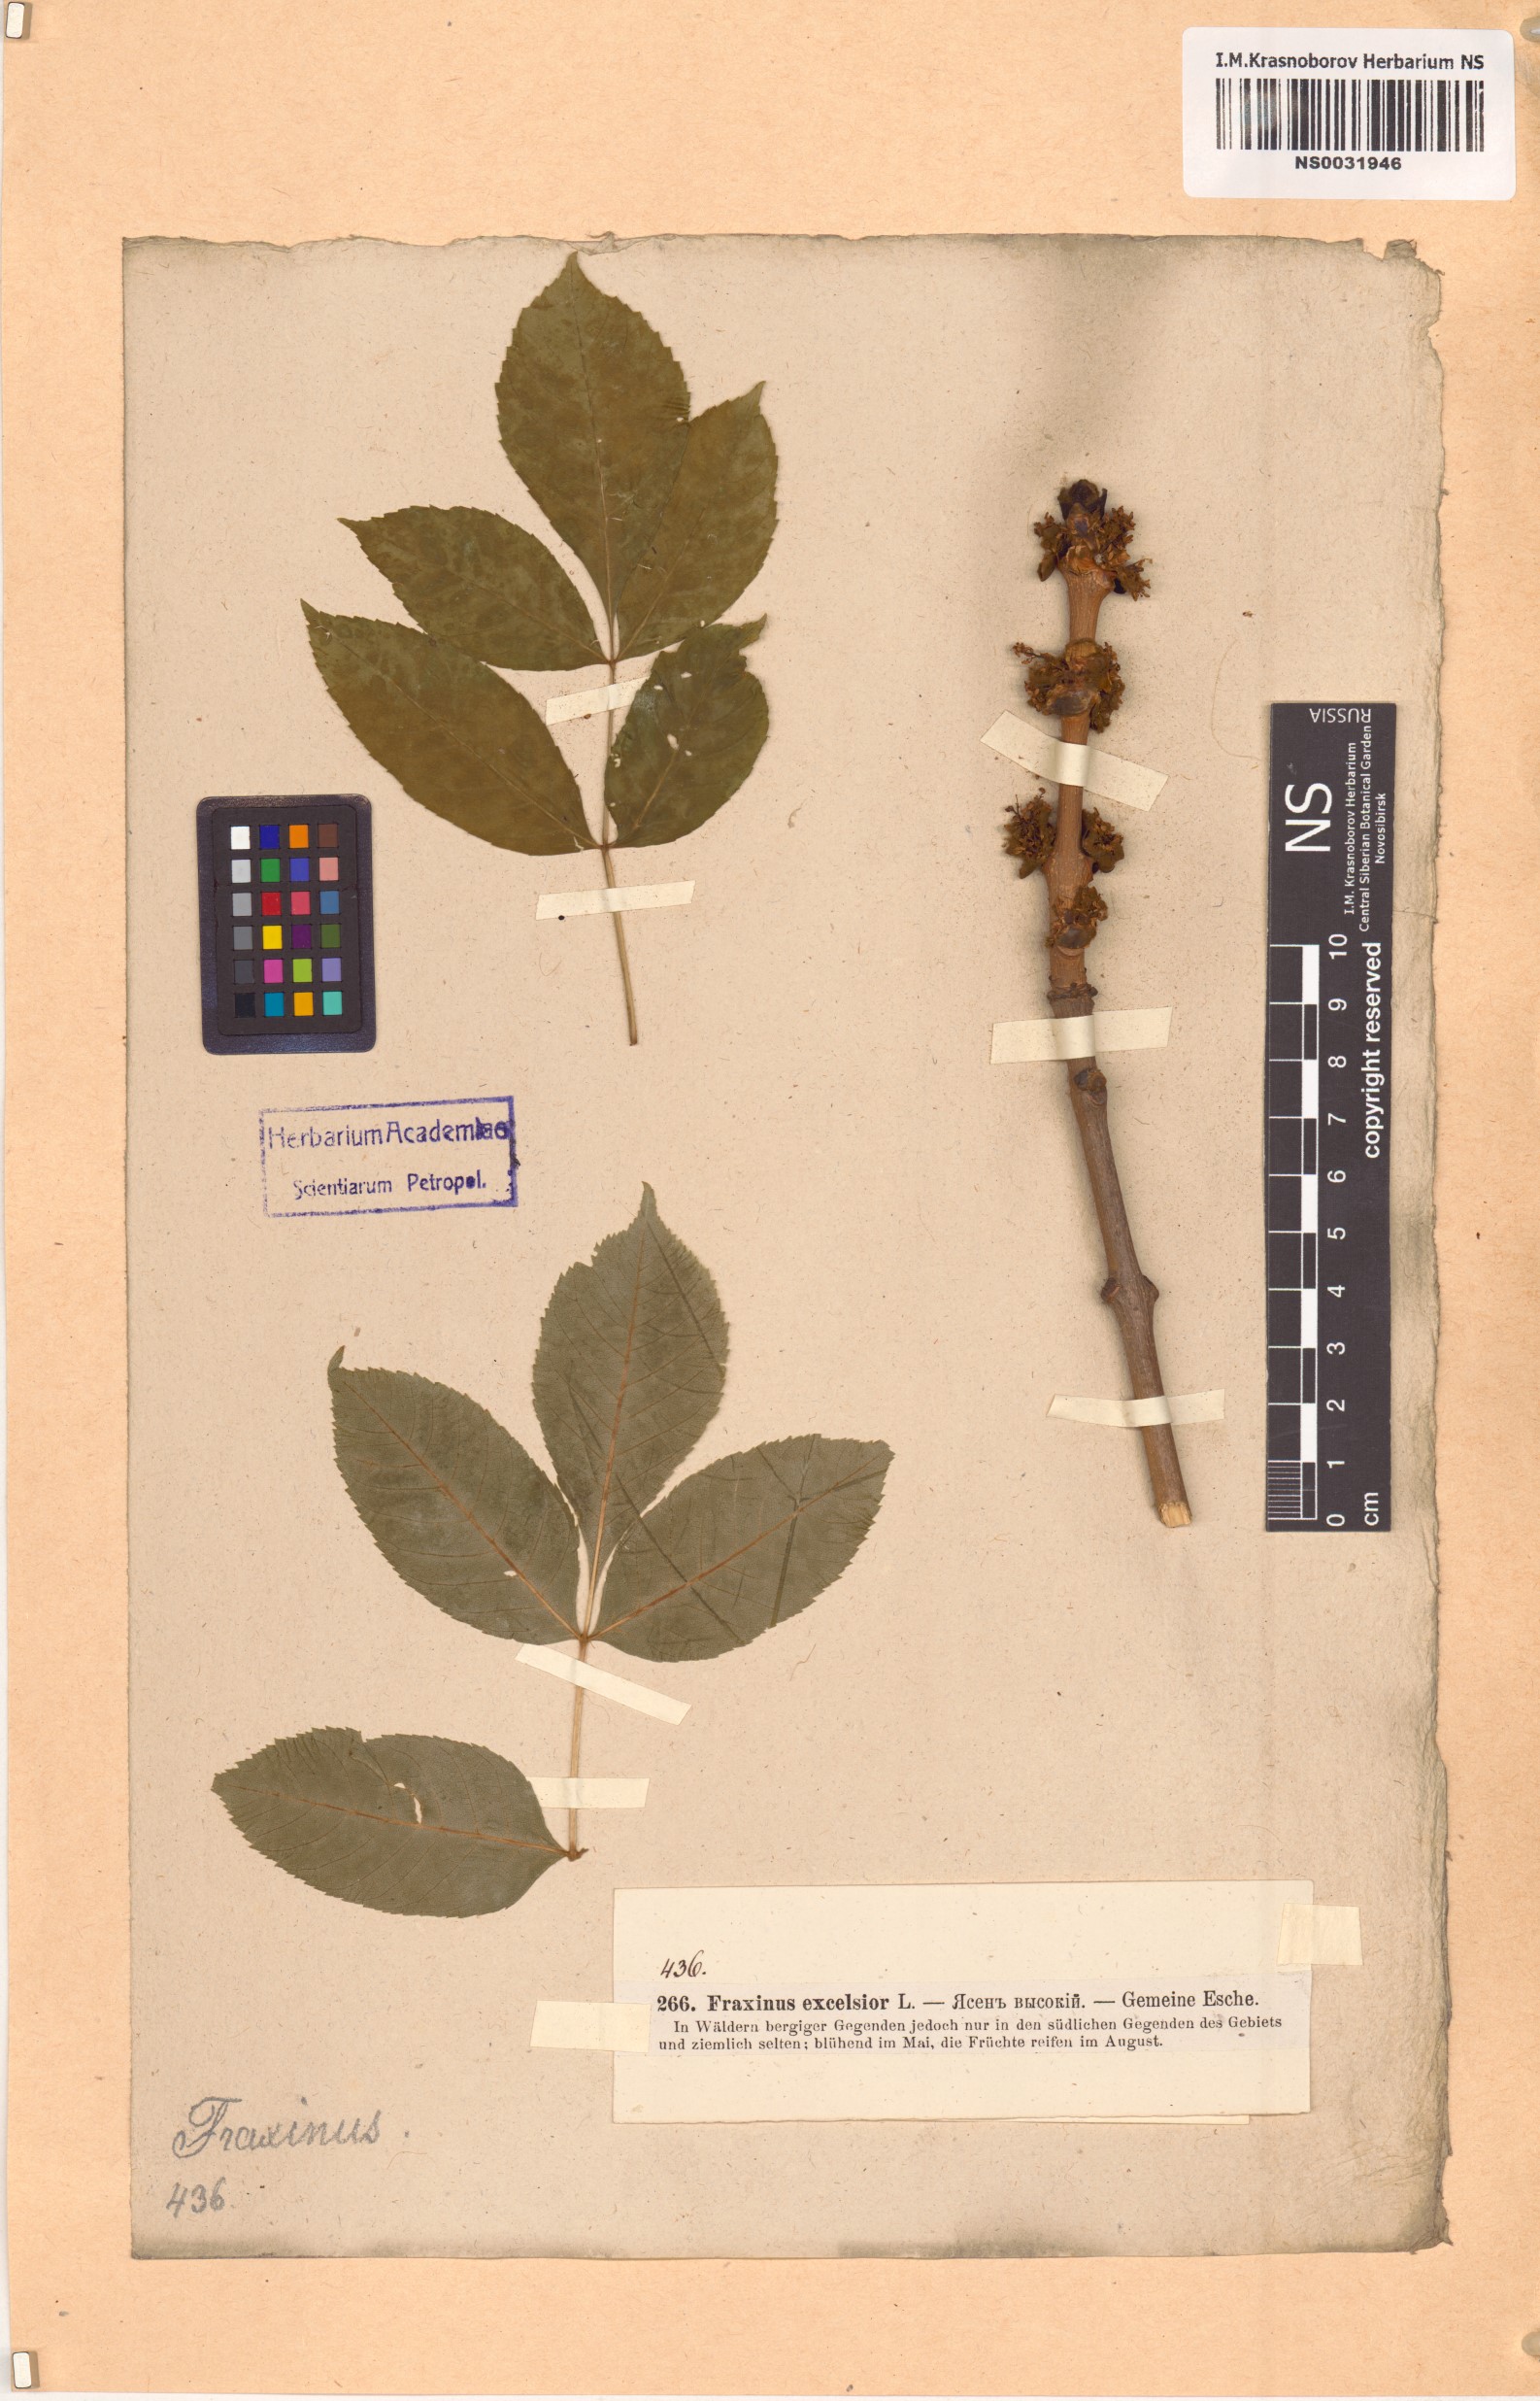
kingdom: Plantae
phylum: Tracheophyta
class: Magnoliopsida
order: Lamiales
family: Oleaceae
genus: Fraxinus
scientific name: Fraxinus excelsior
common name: European ash
